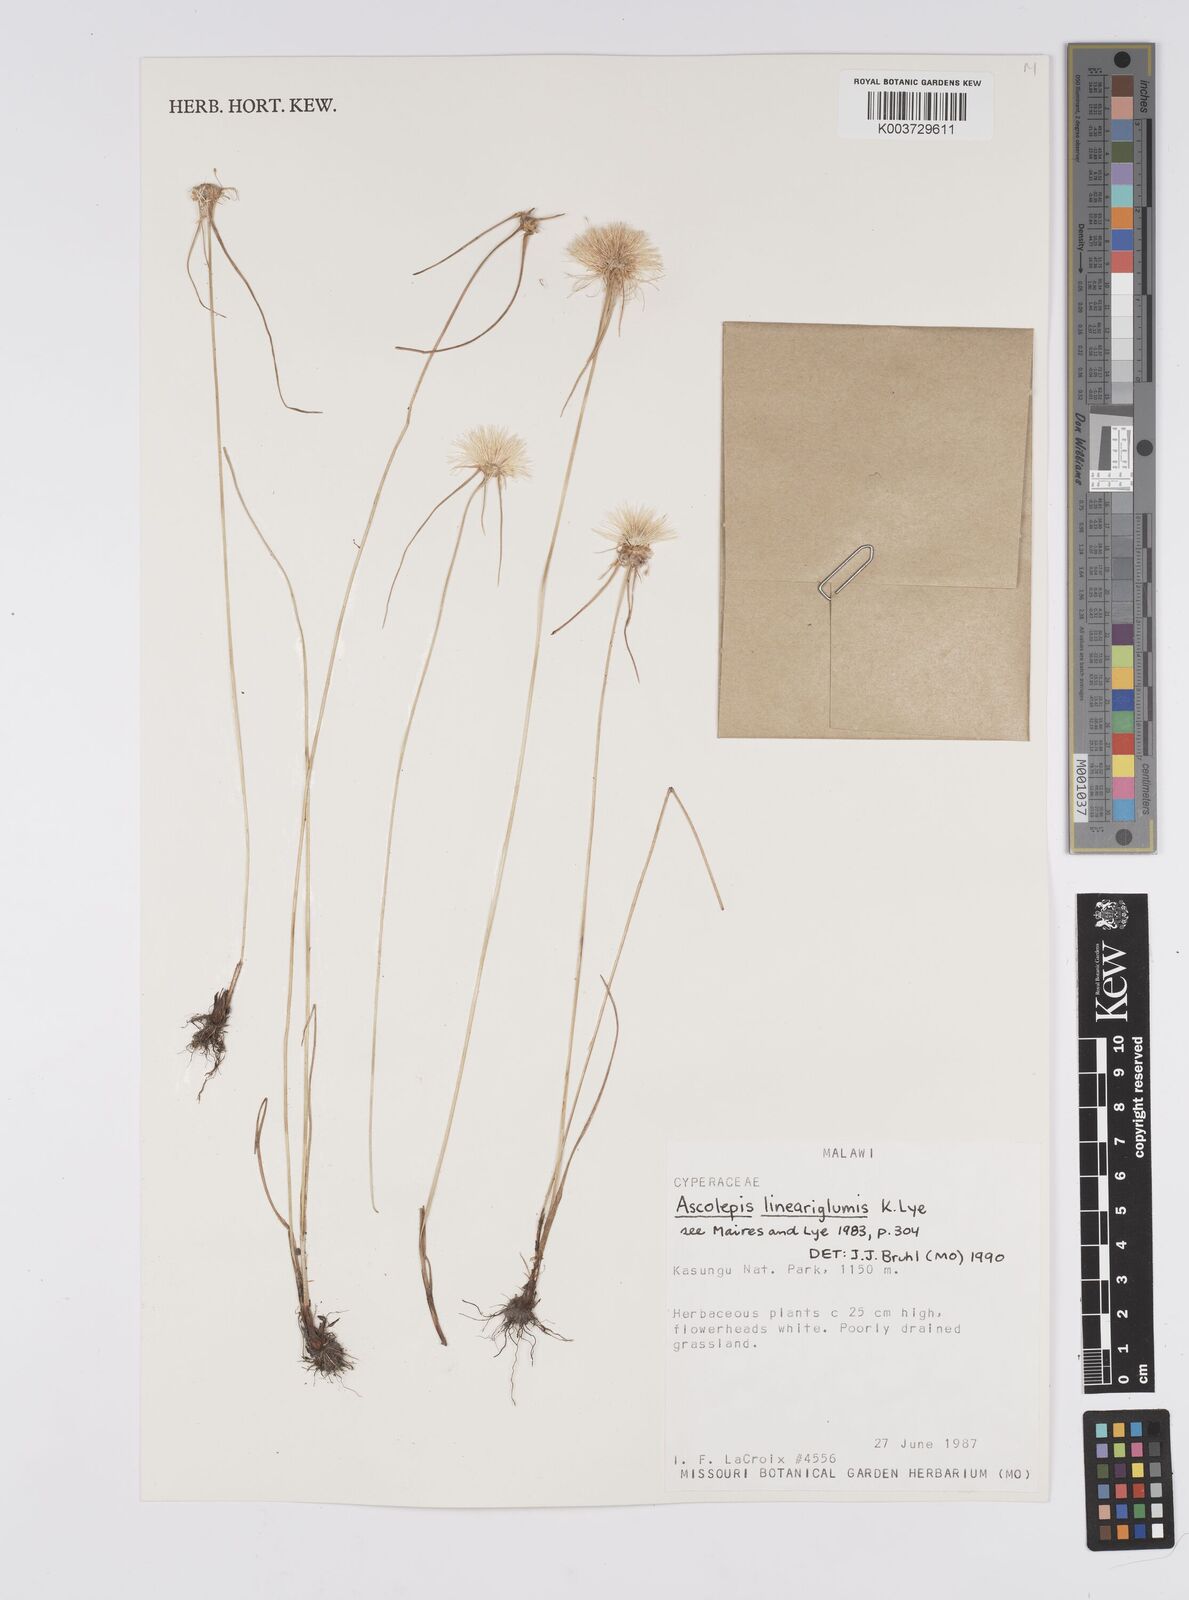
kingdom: Plantae
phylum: Tracheophyta
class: Liliopsida
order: Poales
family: Cyperaceae
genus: Cyperus
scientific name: Cyperus
